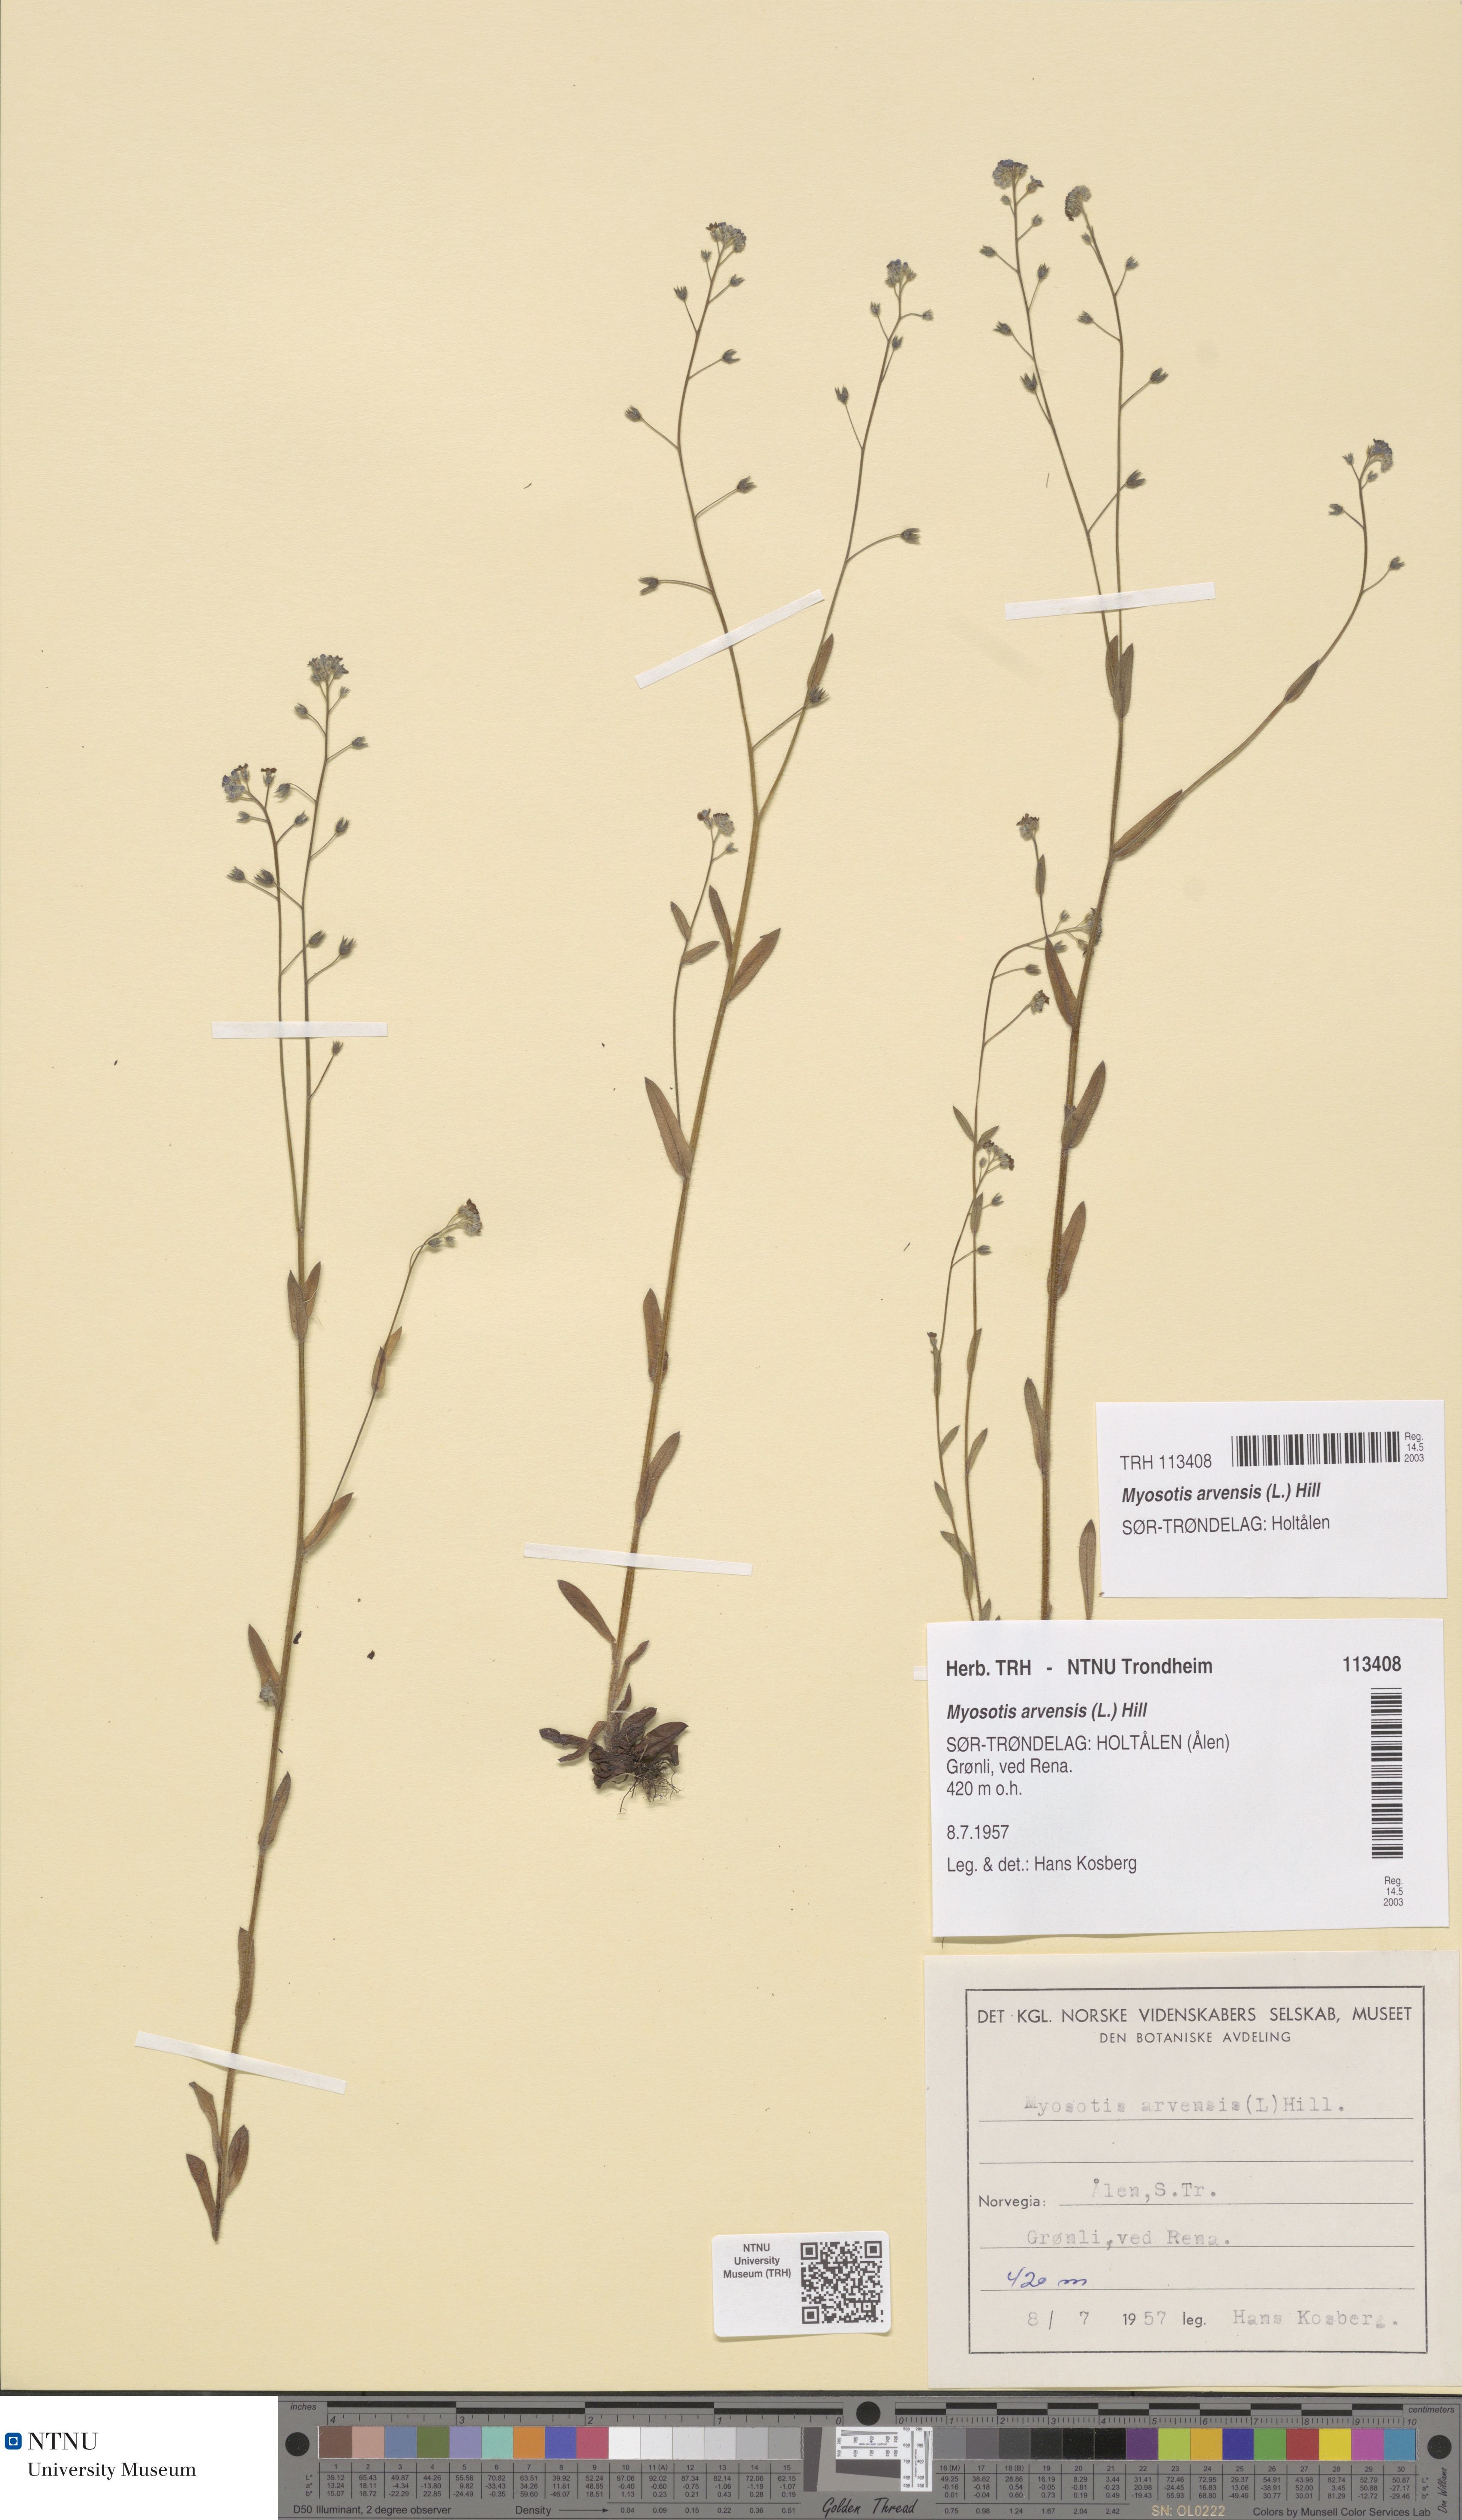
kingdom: Plantae
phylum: Tracheophyta
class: Magnoliopsida
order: Boraginales
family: Boraginaceae
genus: Myosotis
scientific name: Myosotis arvensis
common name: Field forget-me-not
